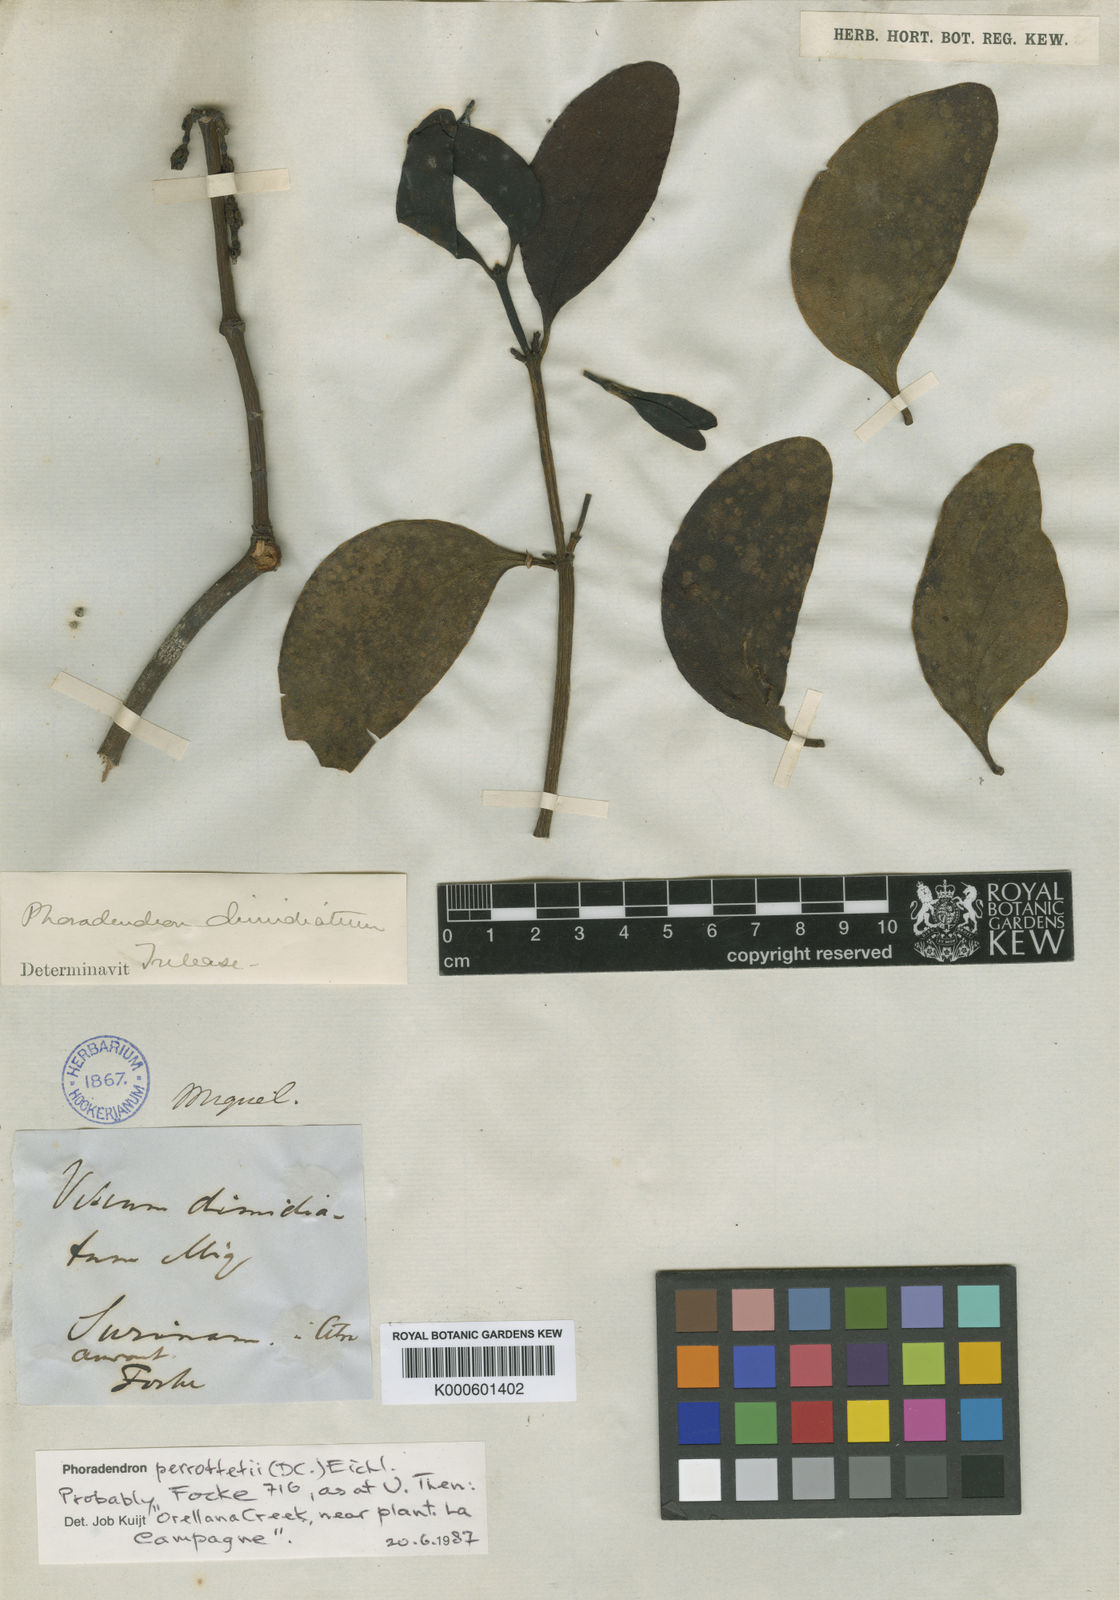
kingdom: Plantae
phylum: Tracheophyta
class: Magnoliopsida
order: Santalales
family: Viscaceae
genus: Phoradendron
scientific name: Phoradendron perrottetii
